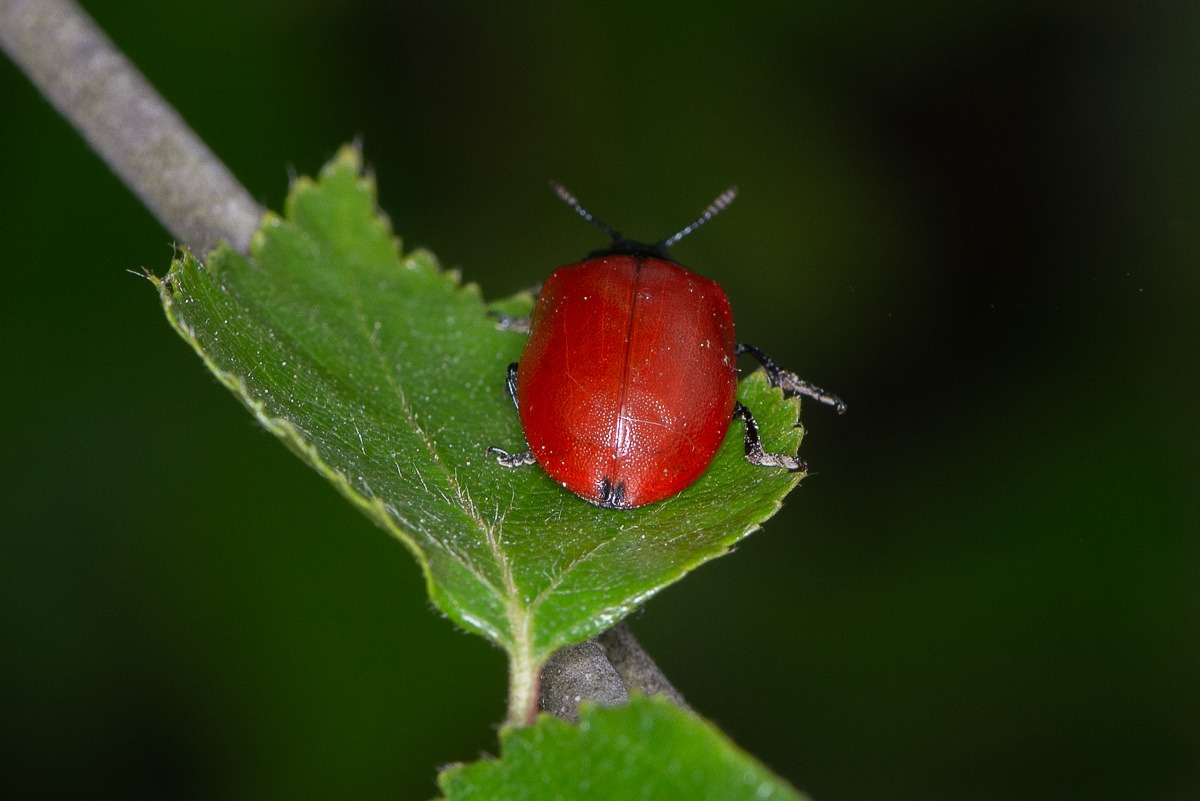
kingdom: Animalia
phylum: Arthropoda
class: Insecta
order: Coleoptera
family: Chrysomelidae
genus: Chrysomela
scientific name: Chrysomela populi
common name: Poppelbladbille
